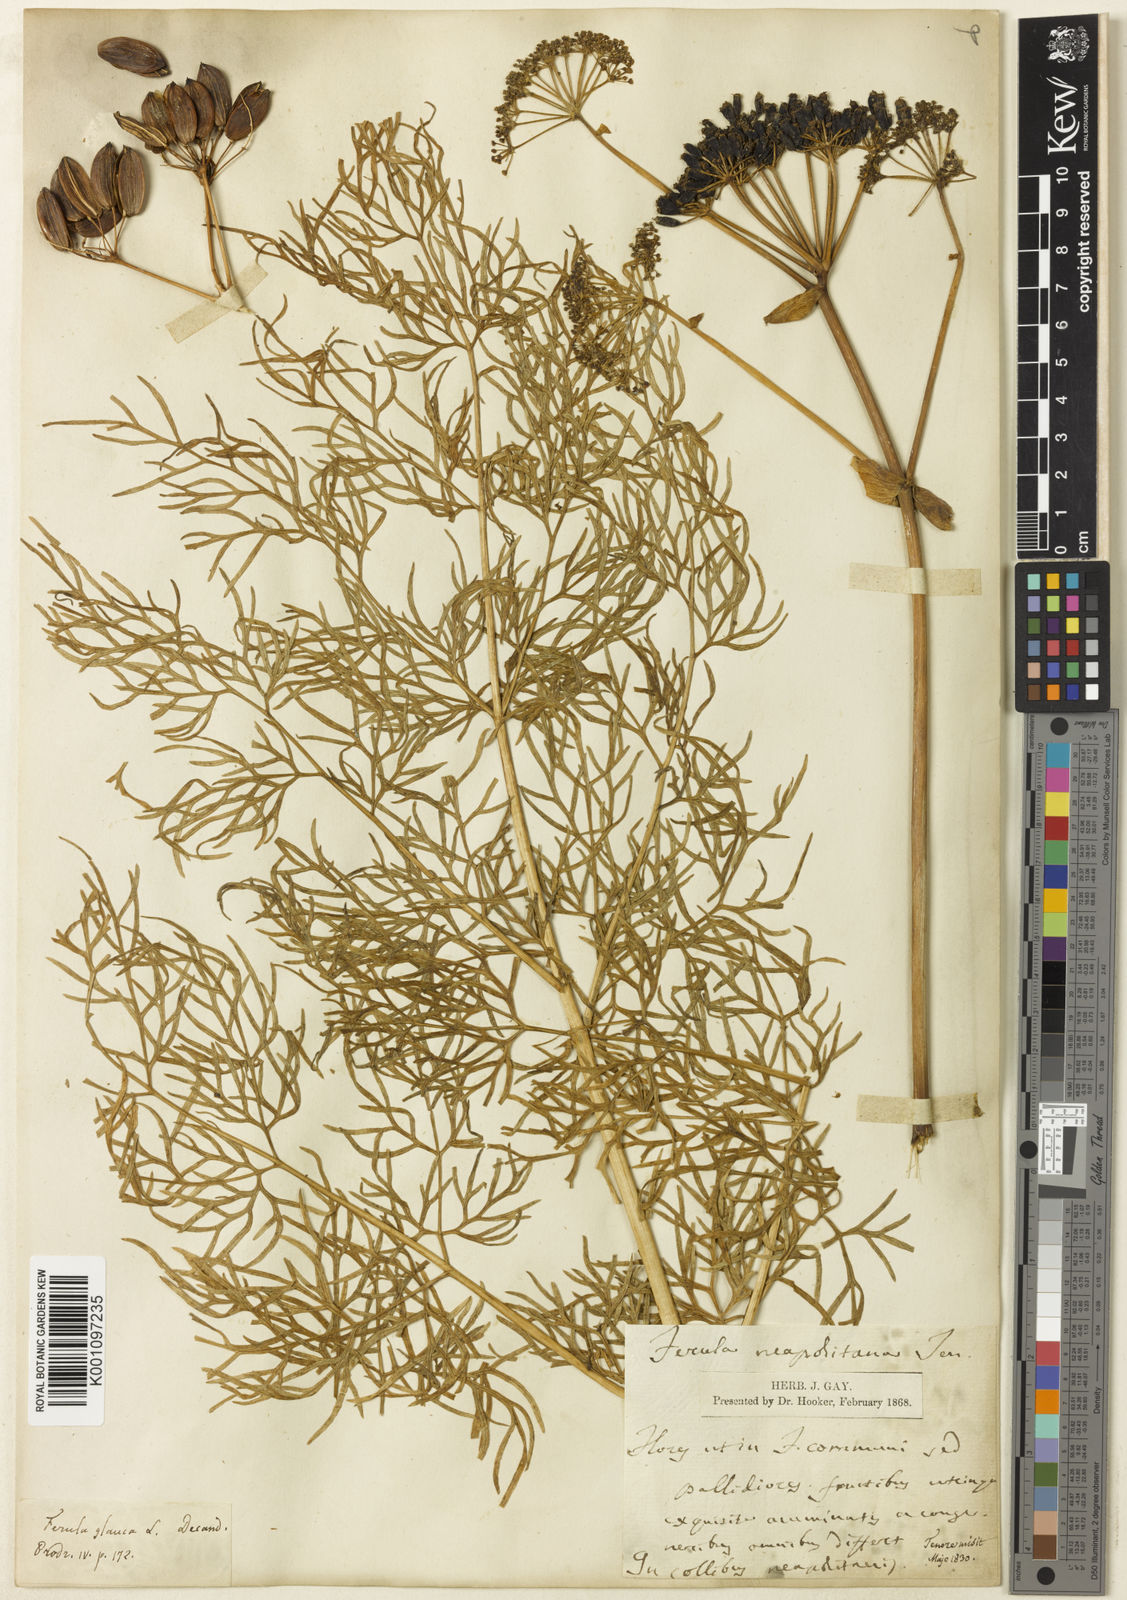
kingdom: Plantae
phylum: Tracheophyta
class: Magnoliopsida
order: Apiales
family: Apiaceae
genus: Ferula
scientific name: Ferula glauca
